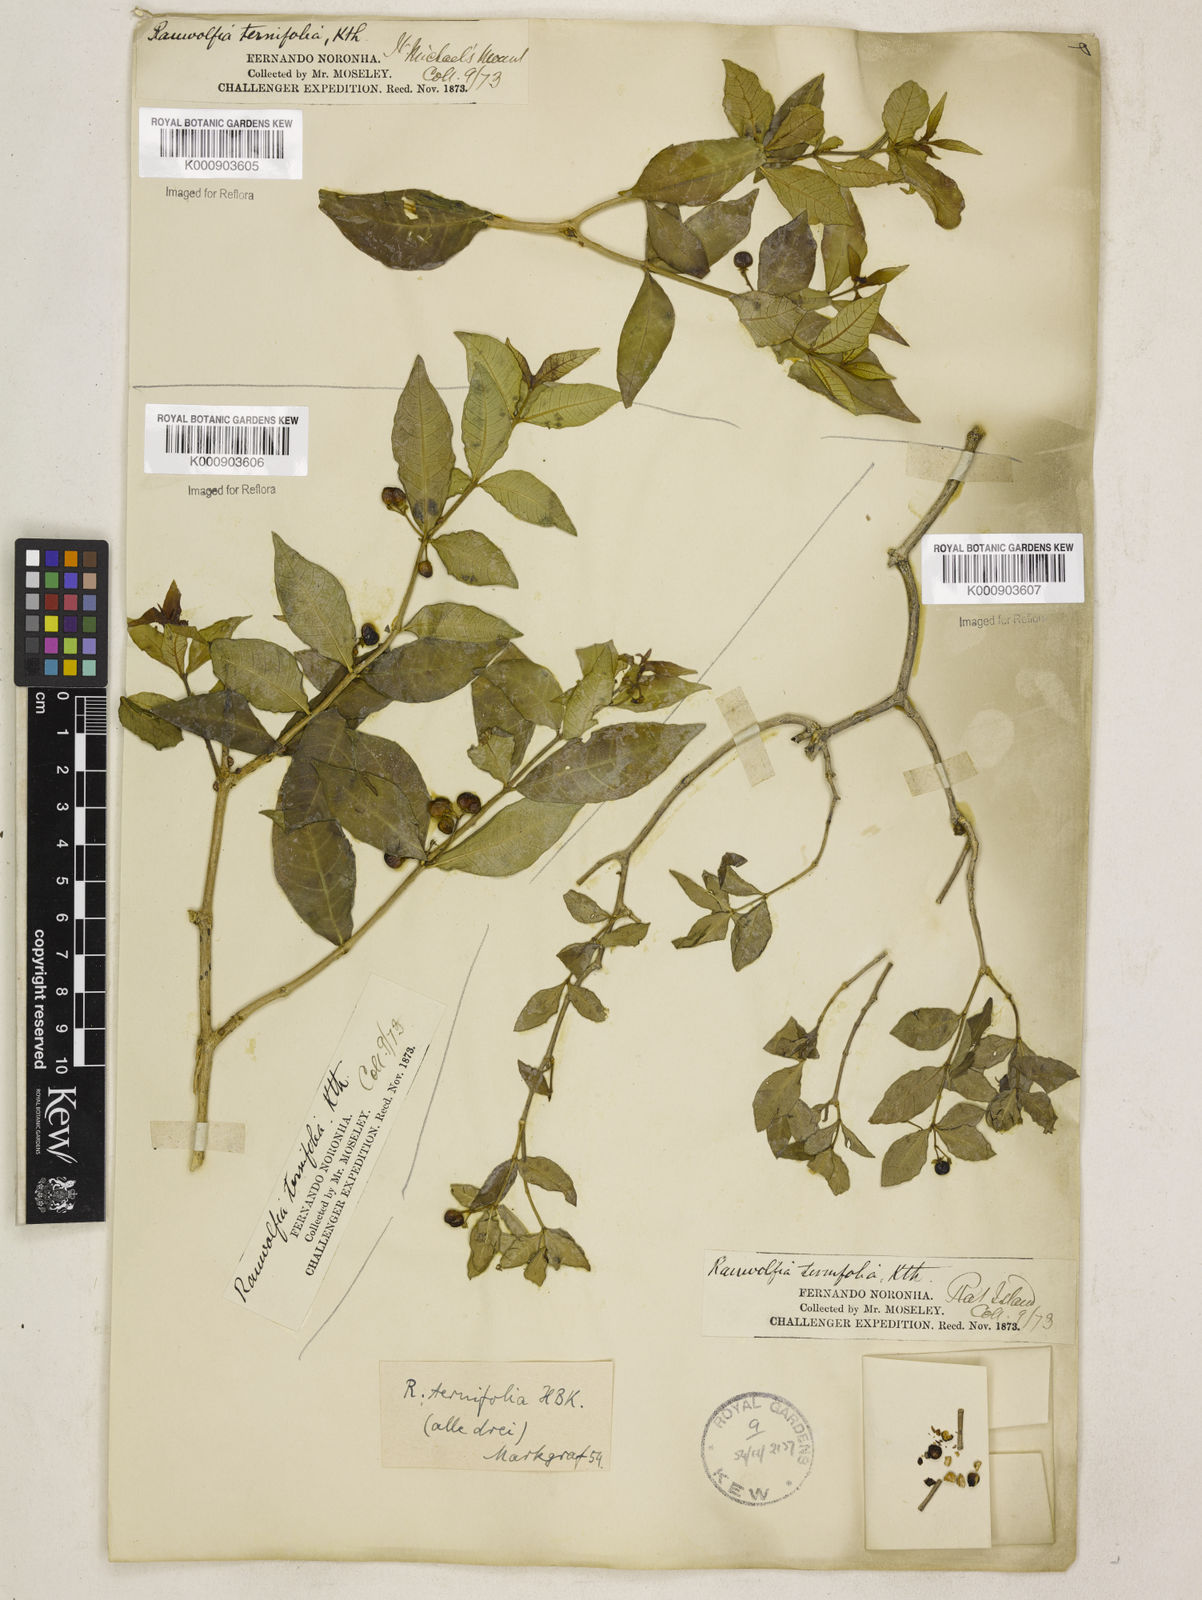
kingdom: Plantae
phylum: Tracheophyta
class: Magnoliopsida
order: Gentianales
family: Apocynaceae
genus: Rauvolfia
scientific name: Rauvolfia
